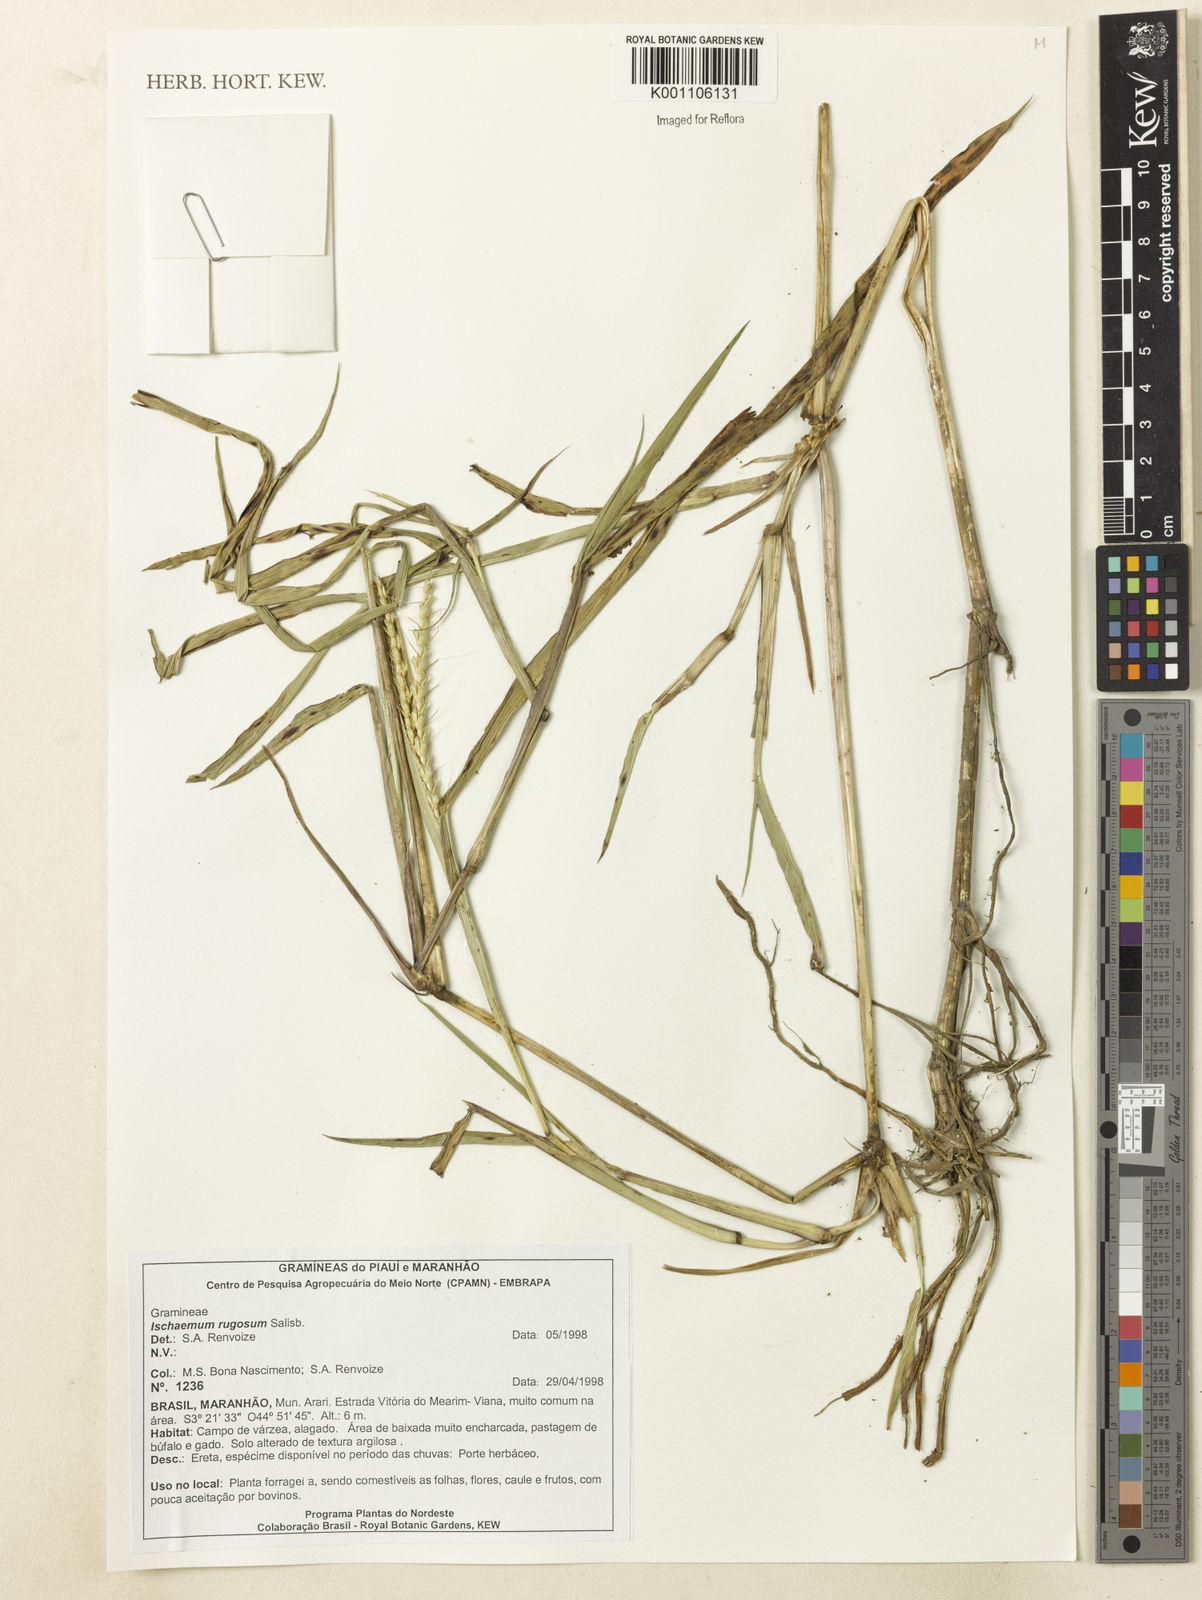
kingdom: Plantae
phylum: Tracheophyta
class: Liliopsida
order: Poales
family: Poaceae
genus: Ischaemum
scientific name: Ischaemum rugosum
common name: Saramatta grass
